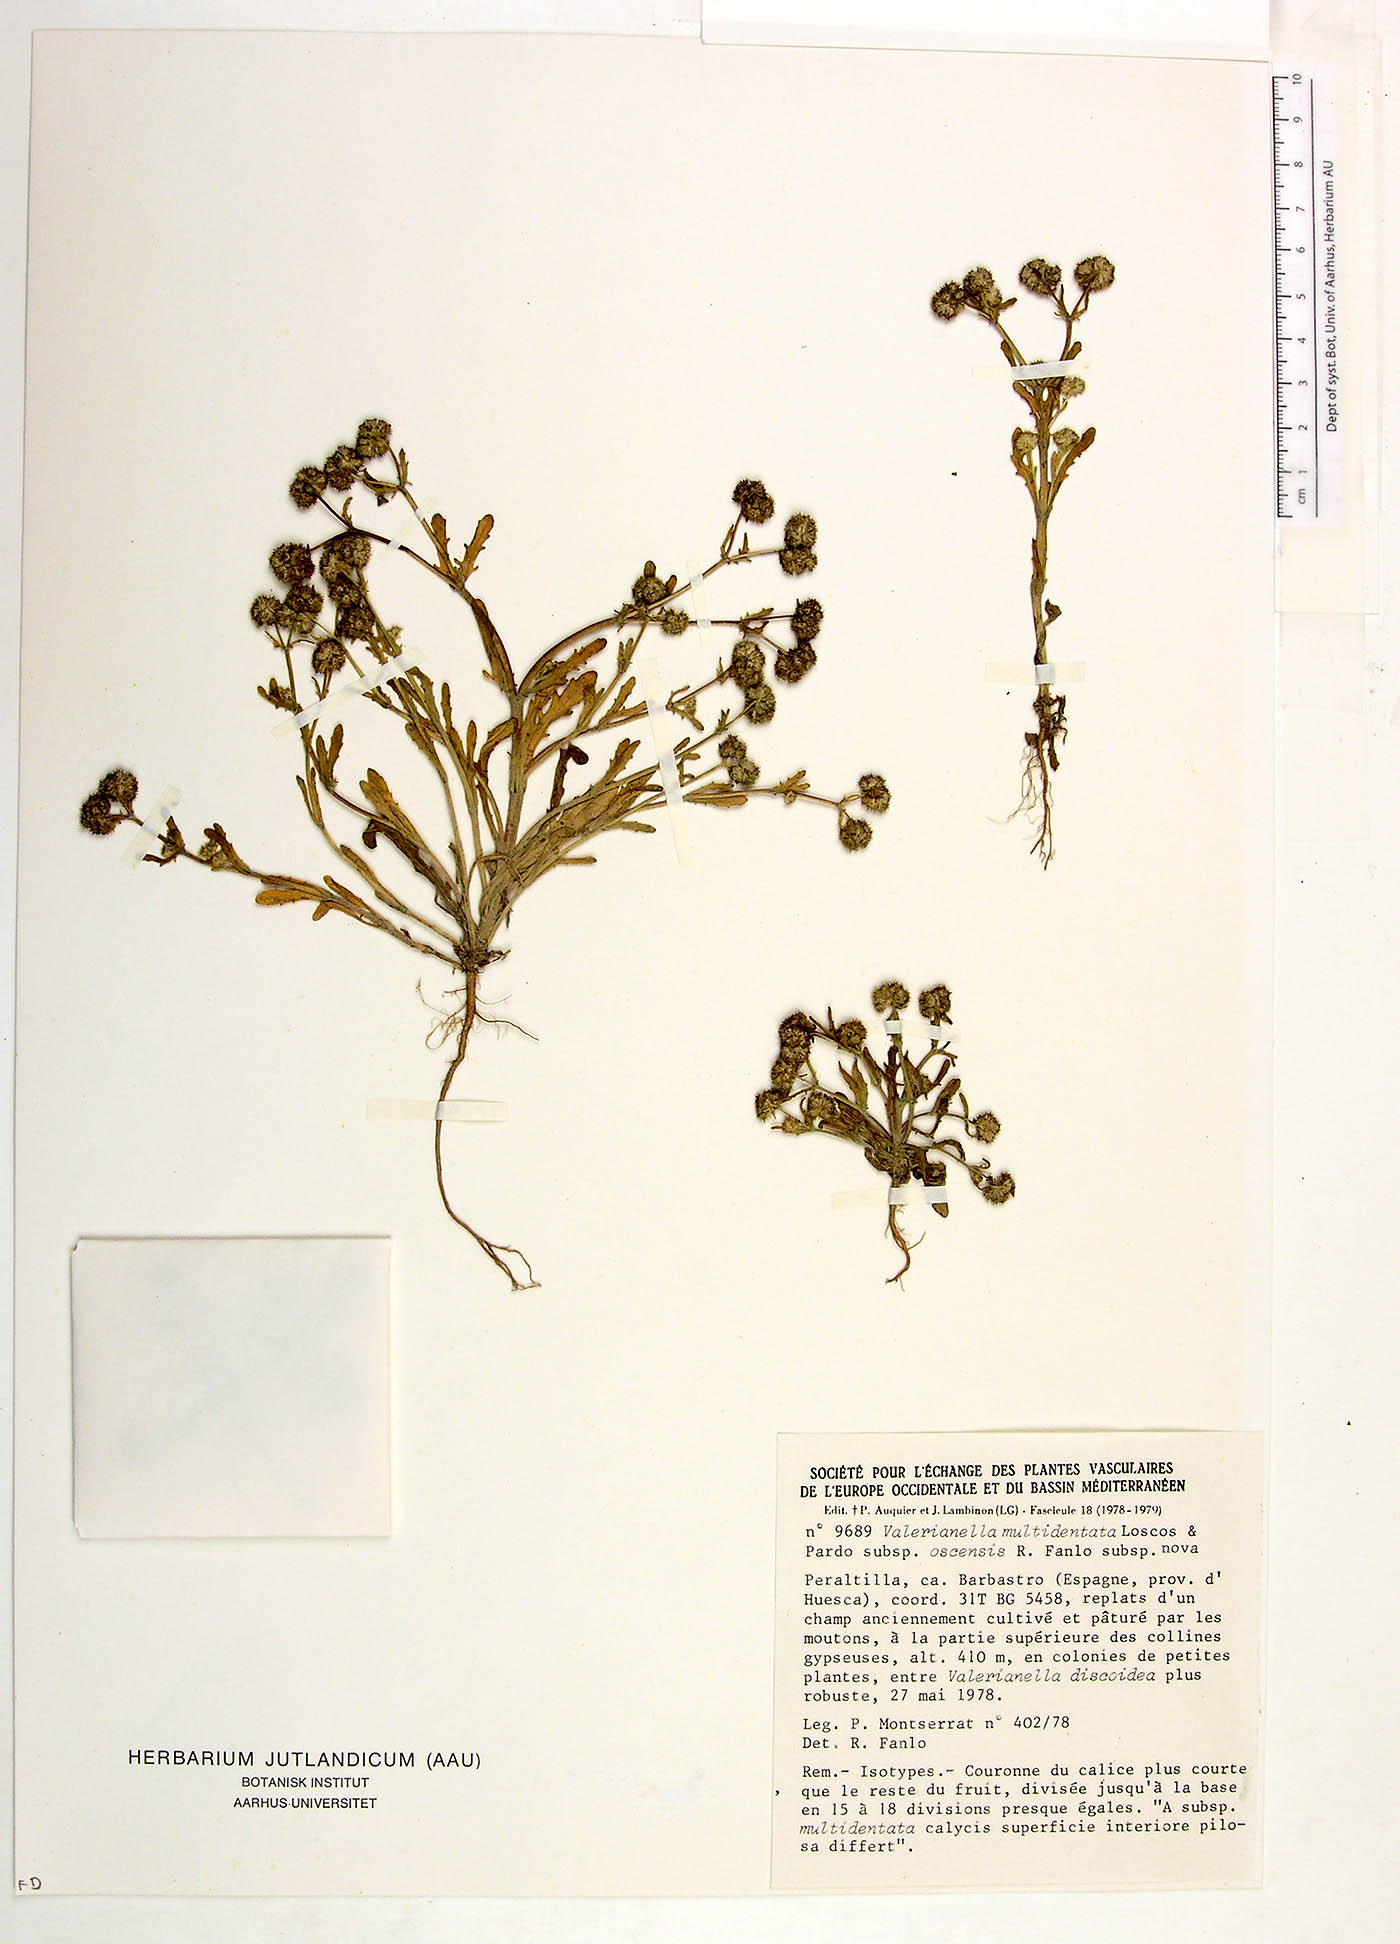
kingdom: Plantae
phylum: Tracheophyta
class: Magnoliopsida
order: Dipsacales
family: Caprifoliaceae
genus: Valerianella
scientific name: Valerianella multidentata
